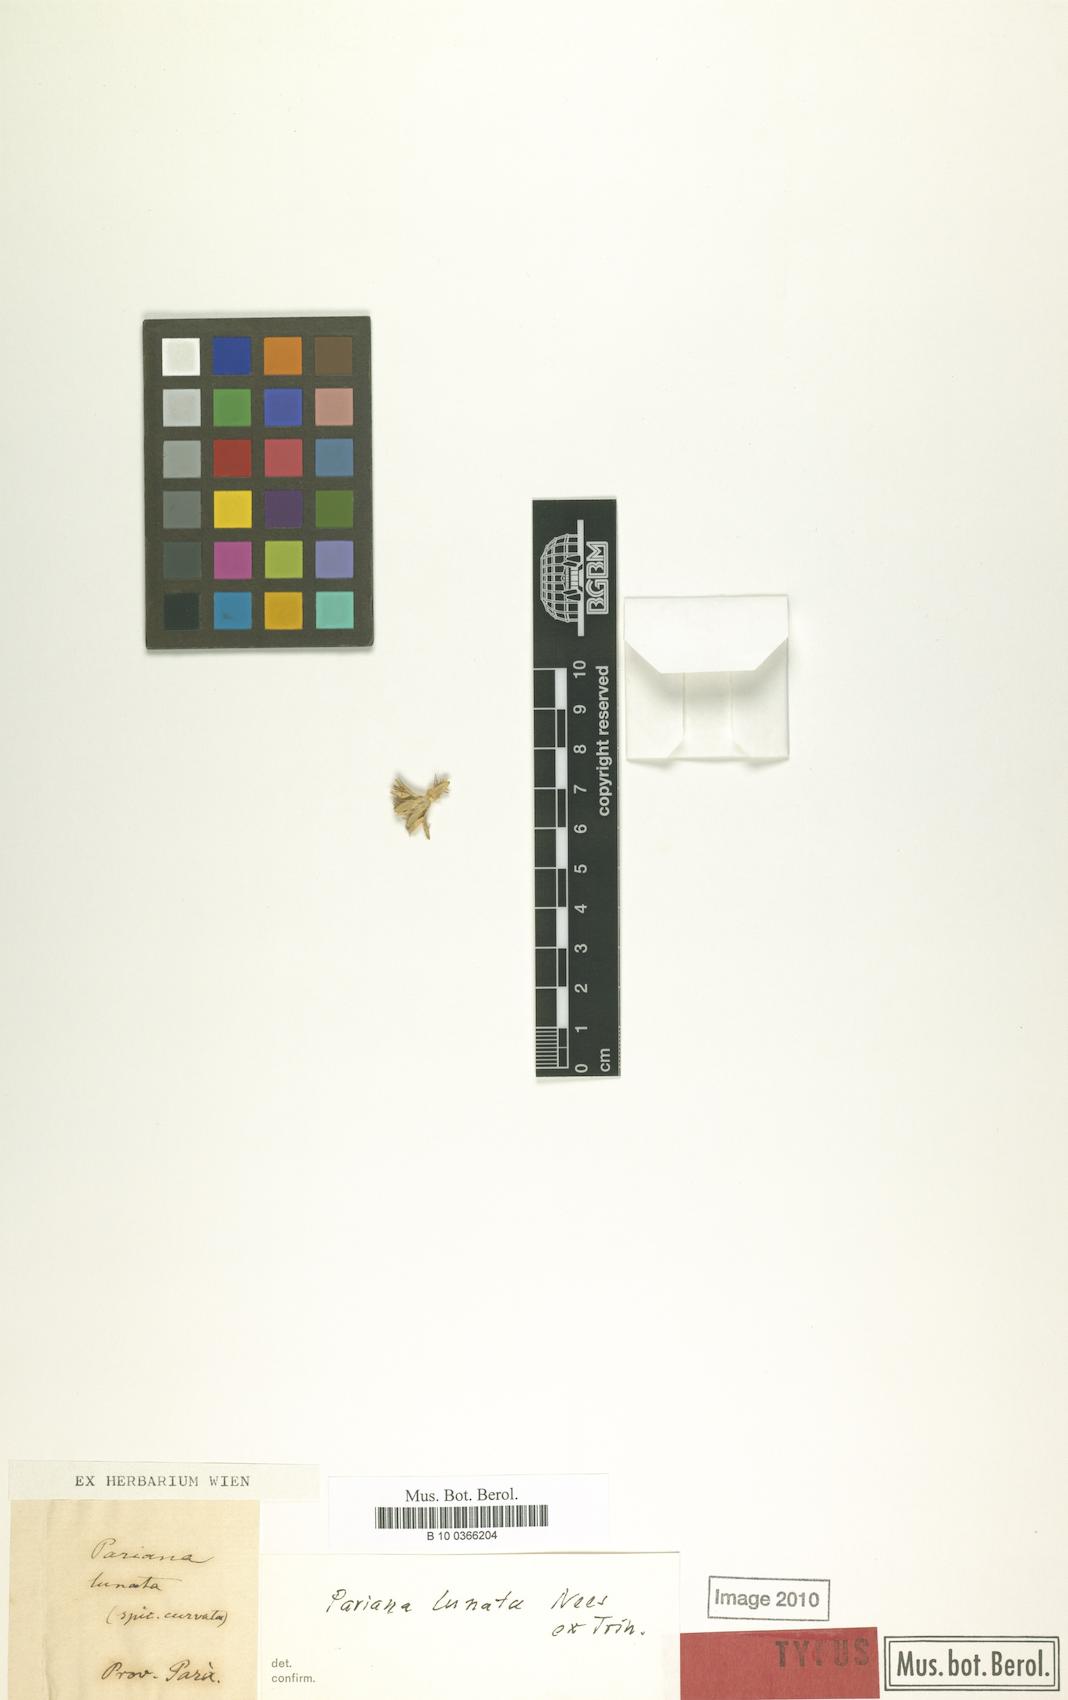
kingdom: Plantae
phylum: Tracheophyta
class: Liliopsida
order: Poales
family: Poaceae
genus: Pariana
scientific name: Pariana lunata
